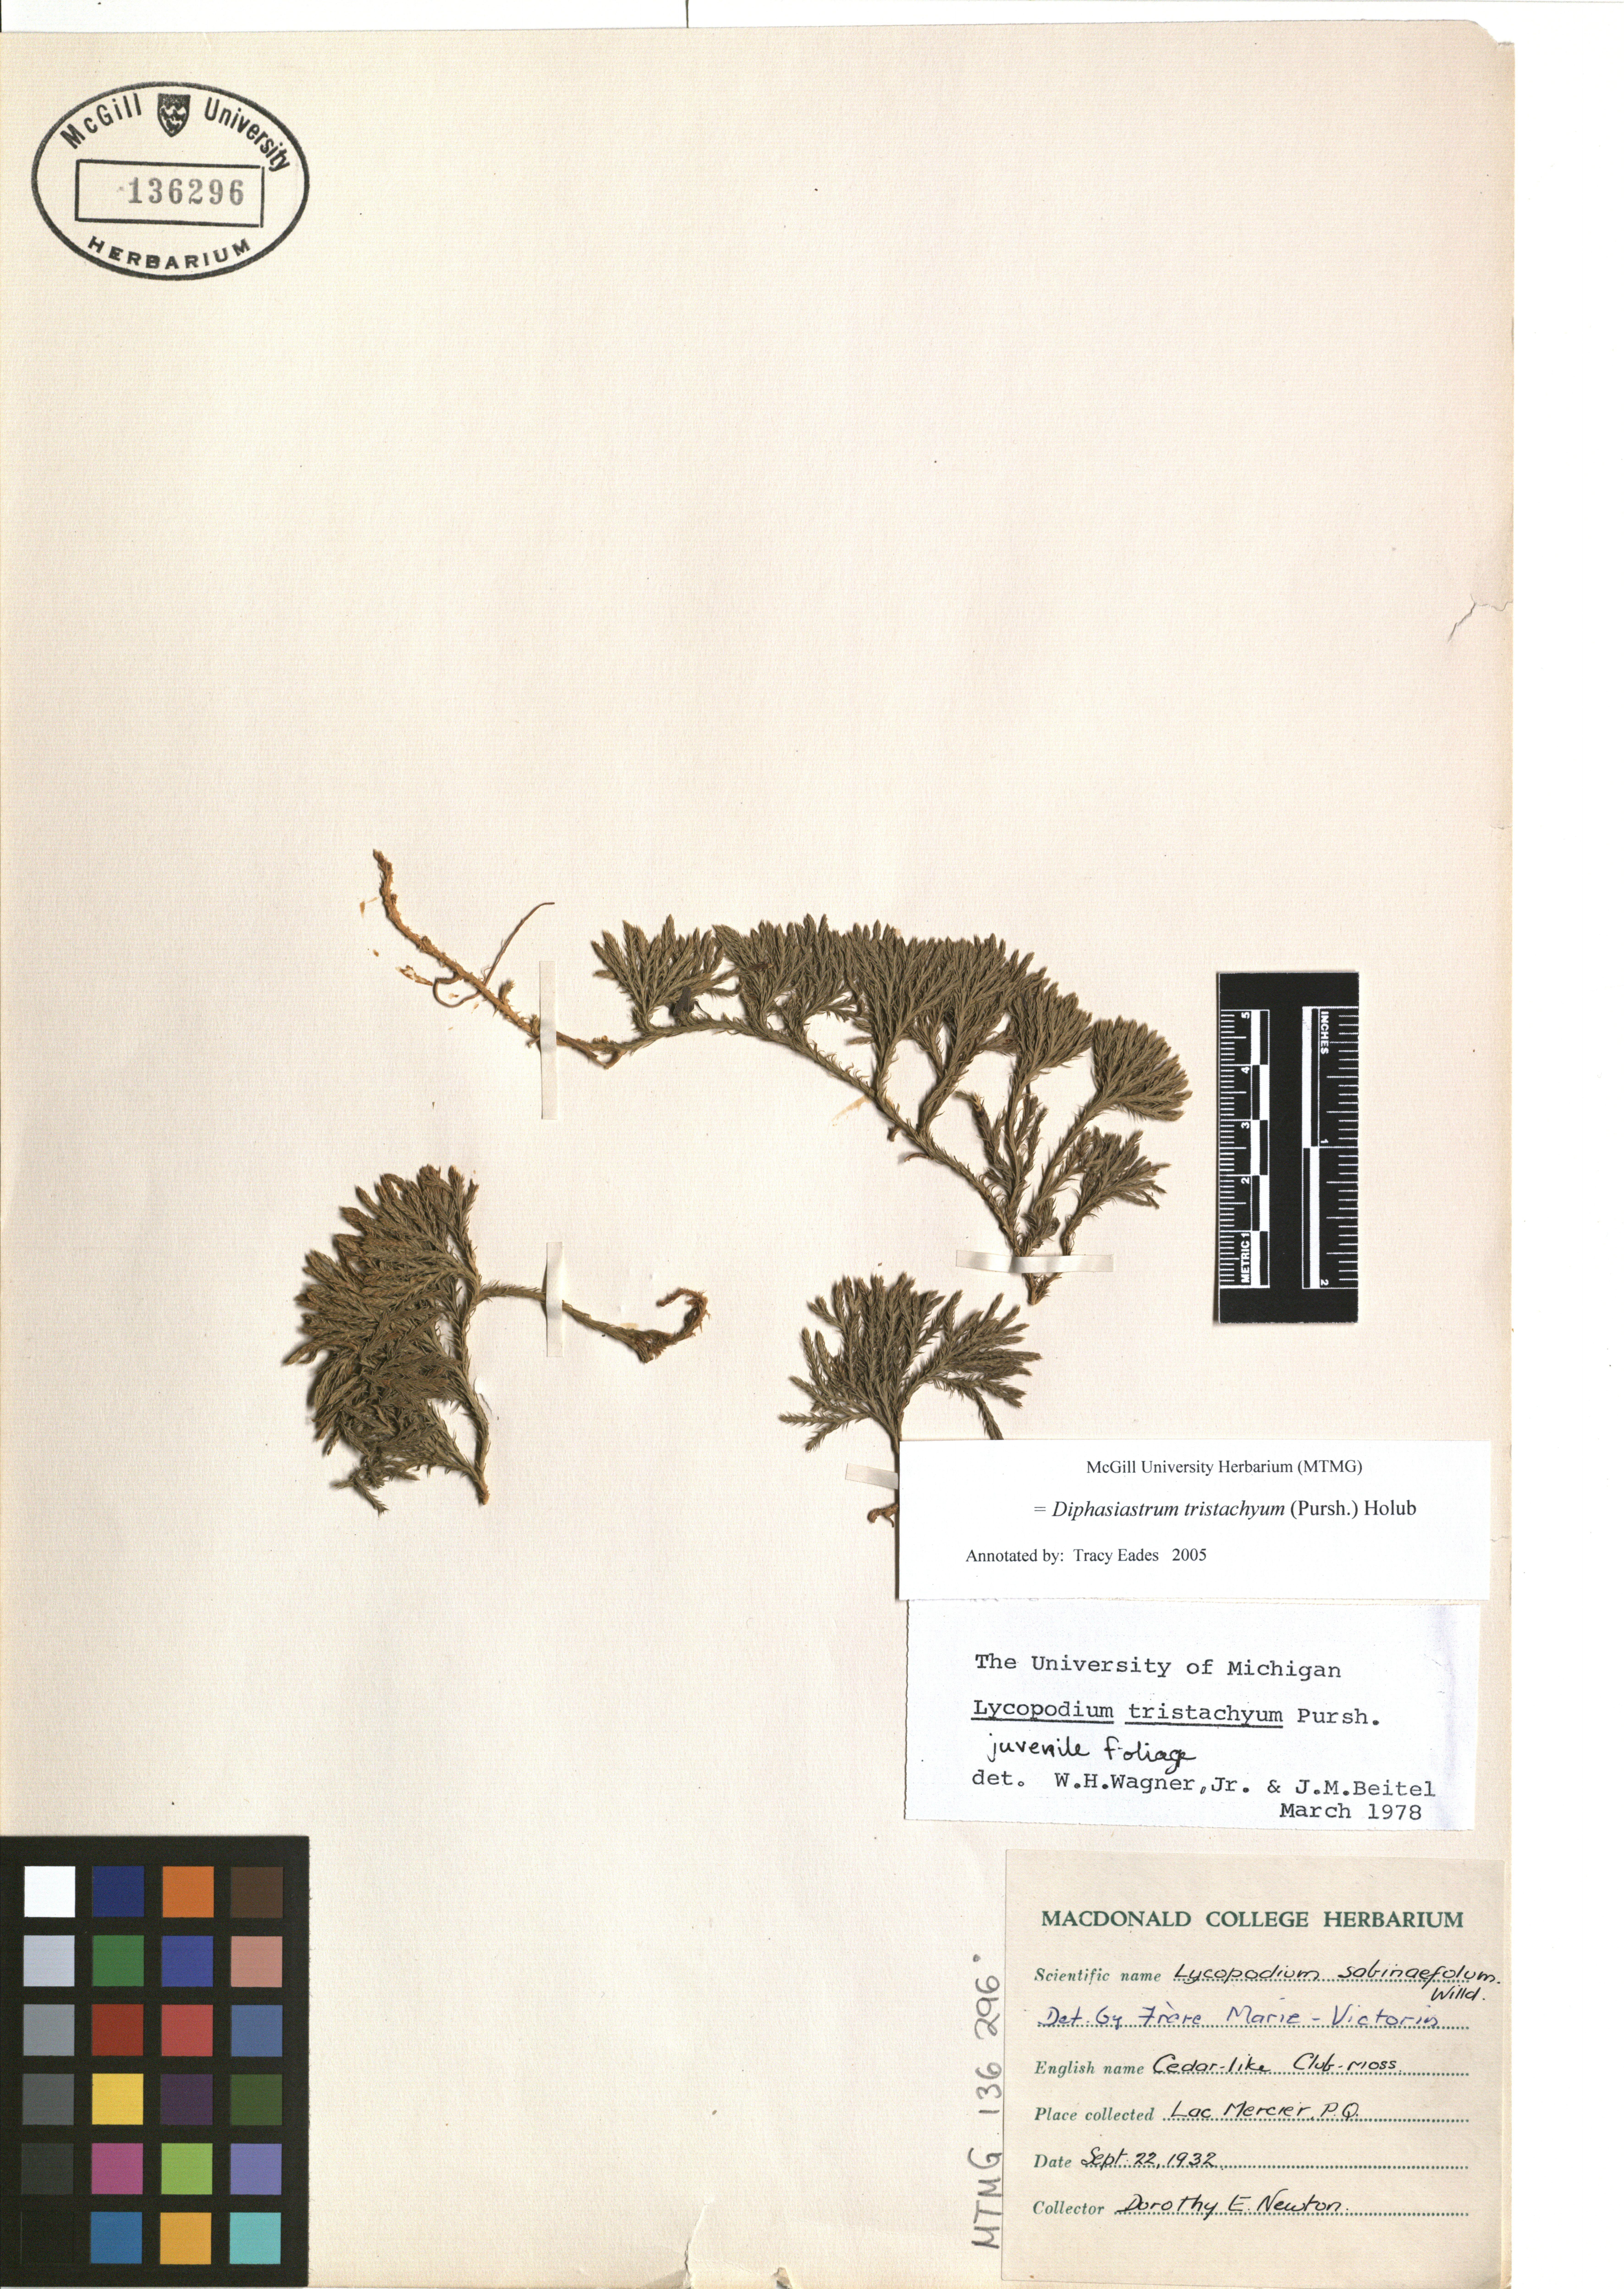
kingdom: Plantae
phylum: Tracheophyta
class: Lycopodiopsida
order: Lycopodiales
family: Lycopodiaceae
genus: Diphasiastrum
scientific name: Diphasiastrum tristachyum
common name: Blue ground-cedar
